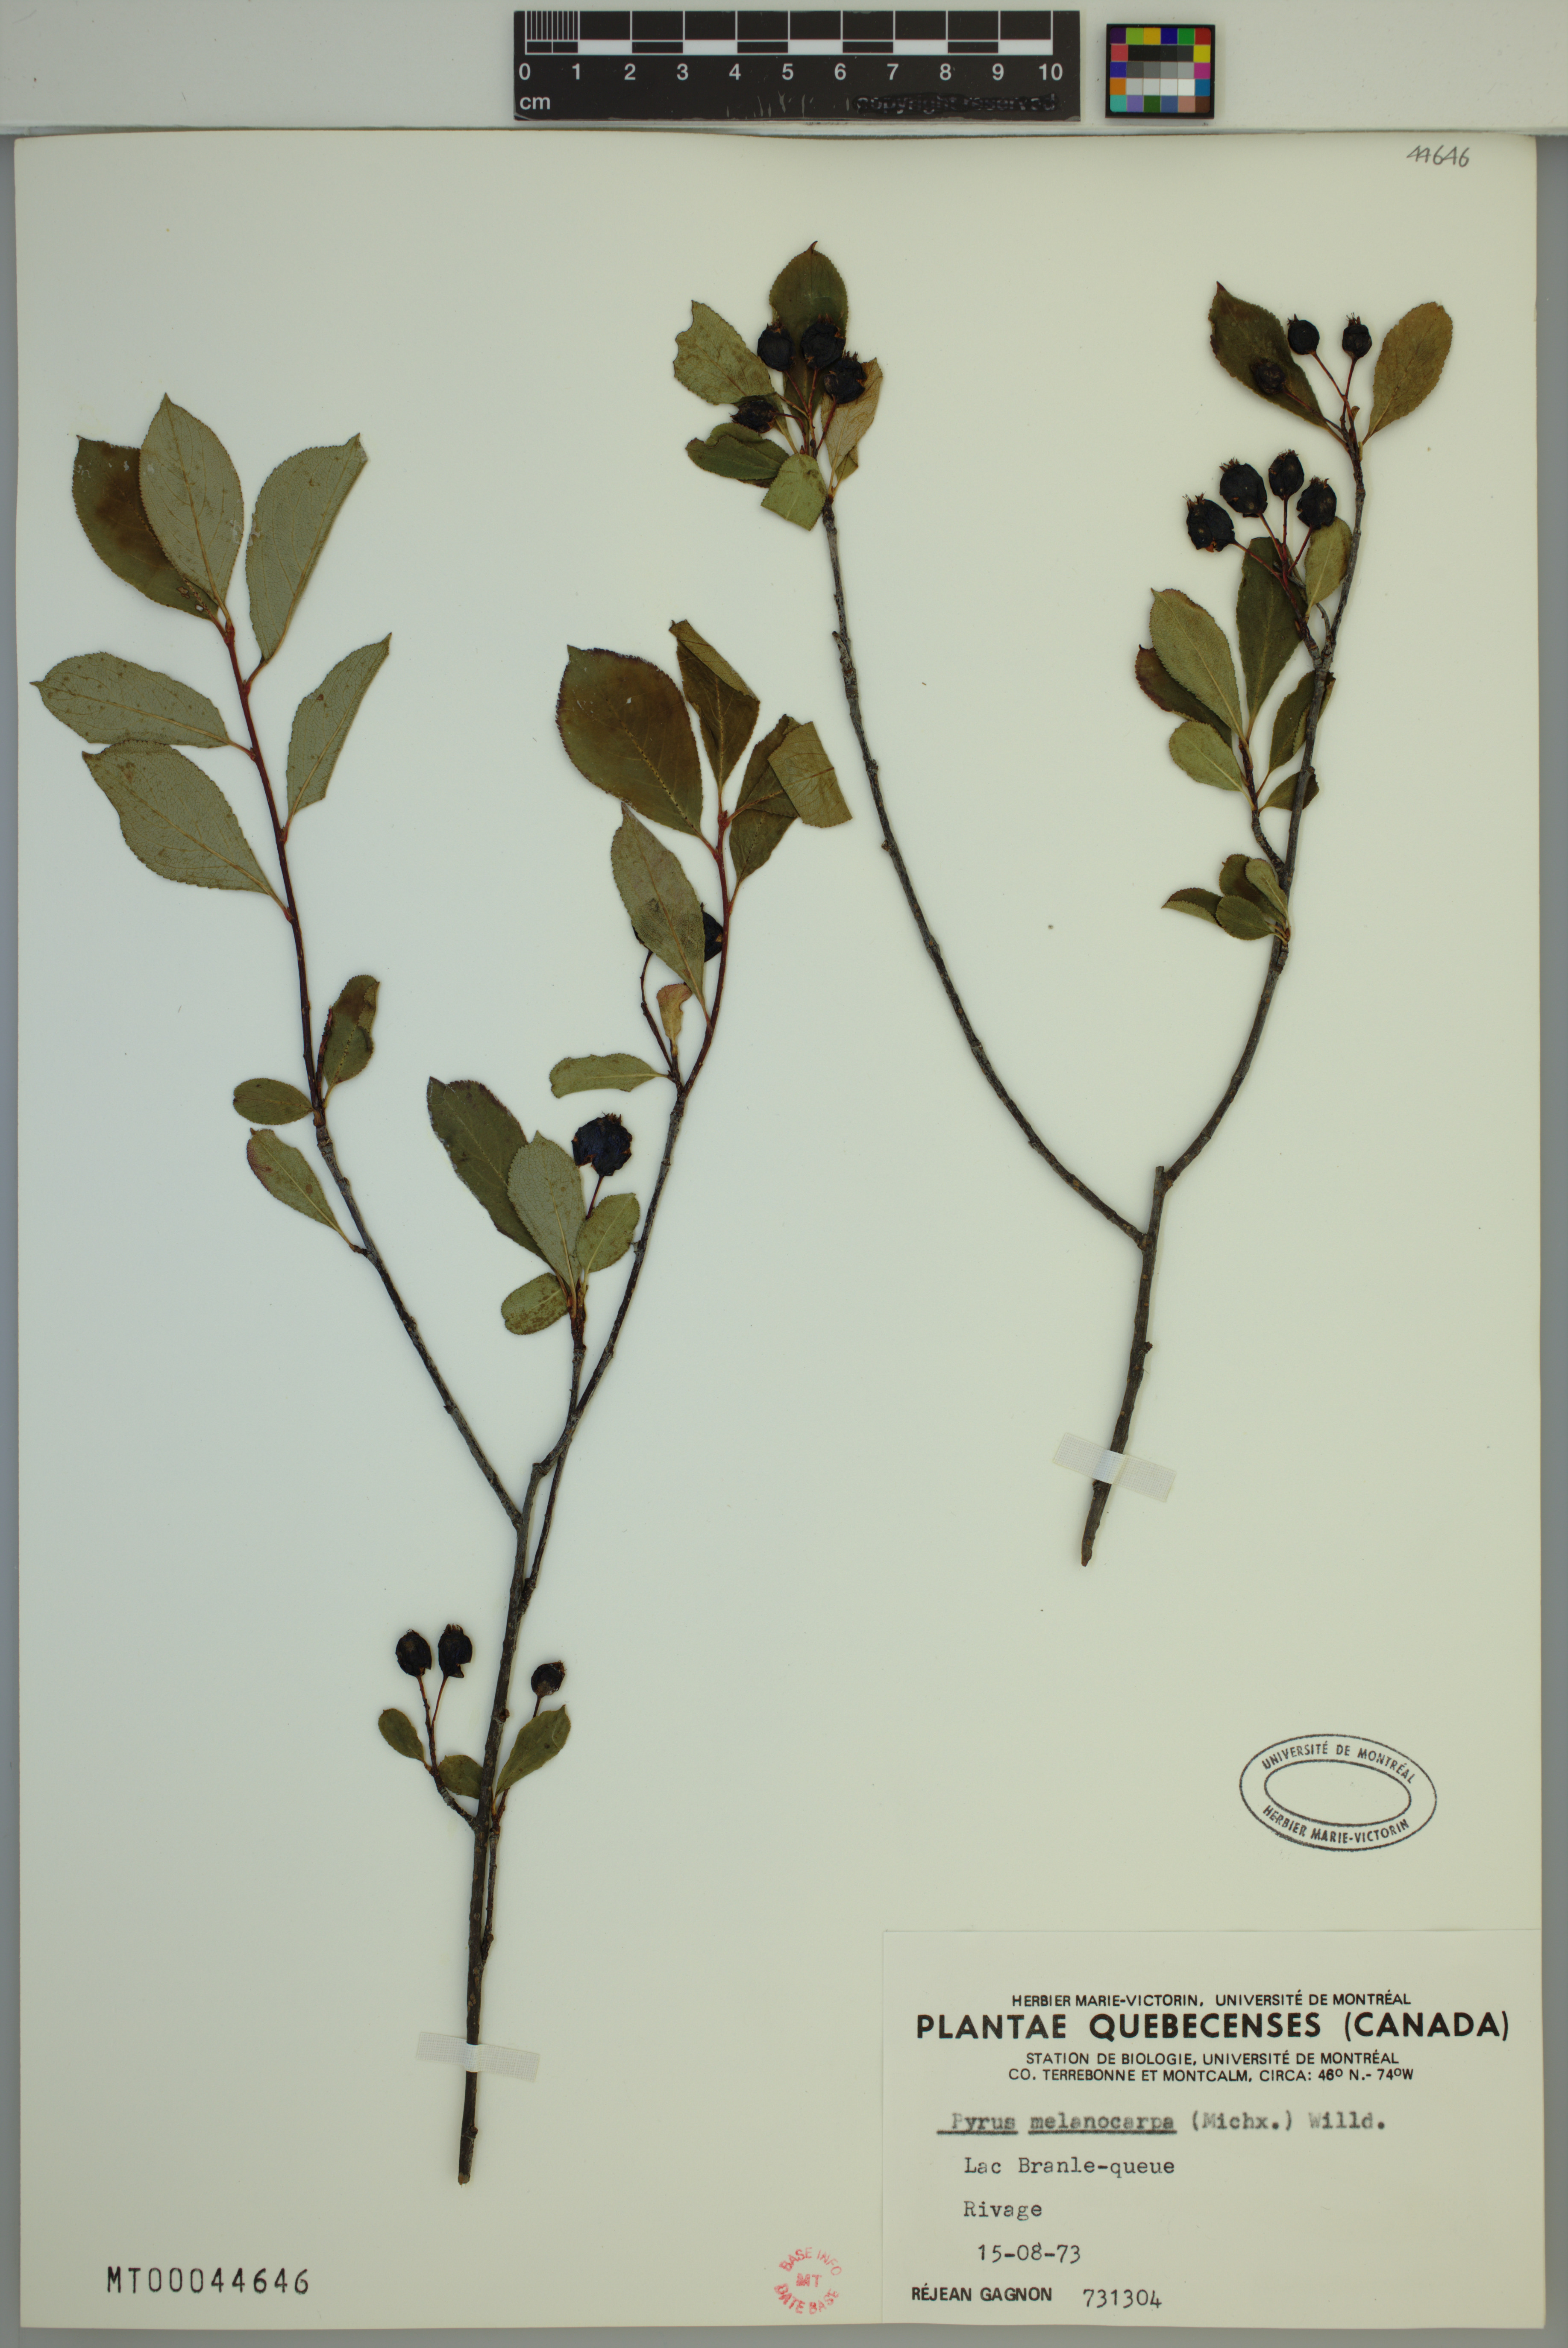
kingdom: Plantae
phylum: Tracheophyta
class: Magnoliopsida
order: Rosales
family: Rosaceae
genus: Aronia
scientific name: Aronia melanocarpa
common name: Black chokeberry
